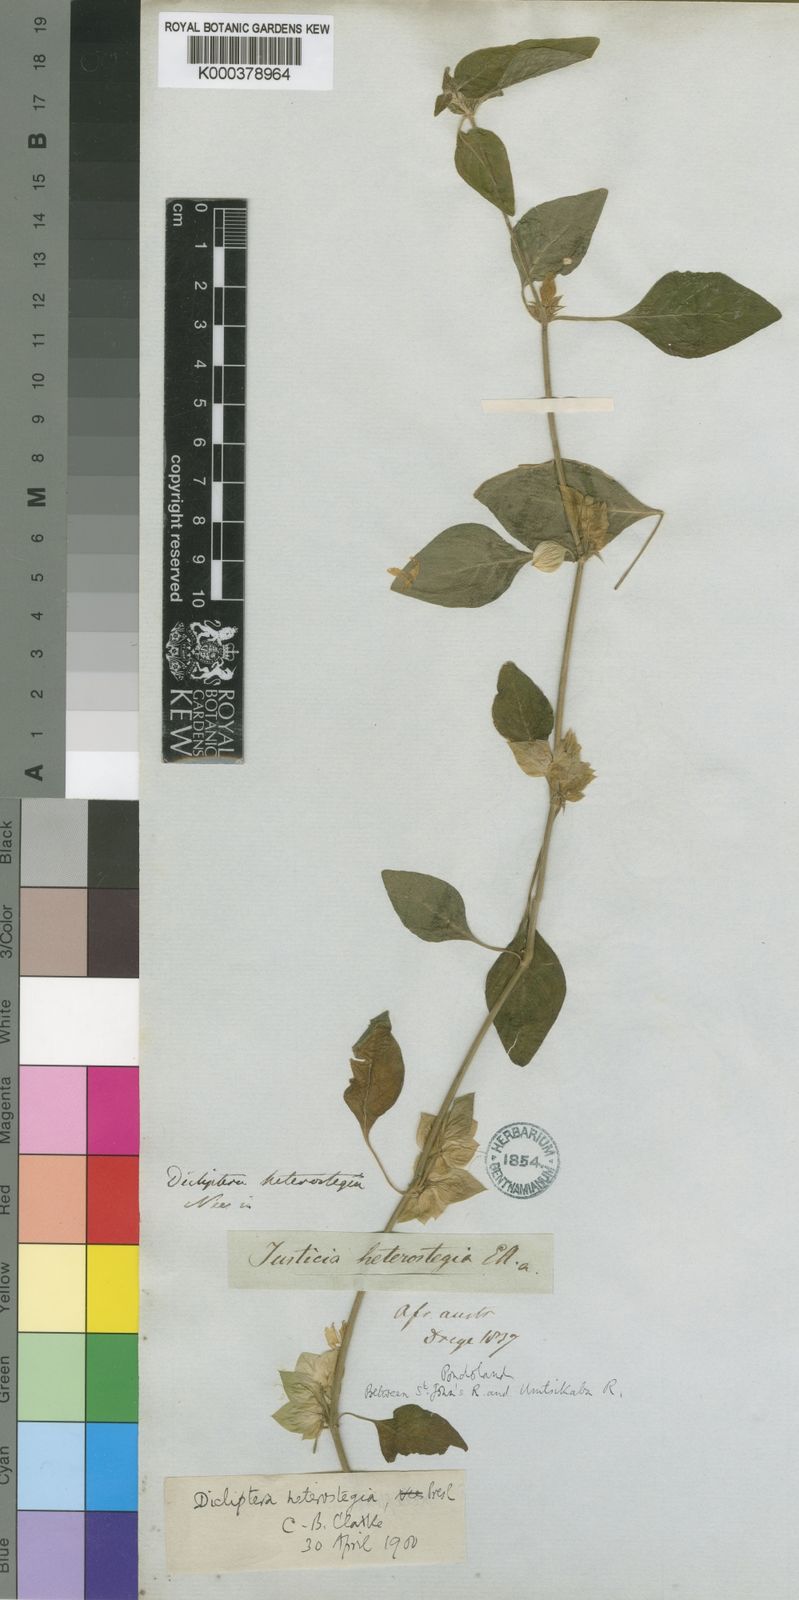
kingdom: Plantae
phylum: Tracheophyta
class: Magnoliopsida
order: Lamiales
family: Acanthaceae
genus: Dicliptera
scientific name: Dicliptera heterostegia
